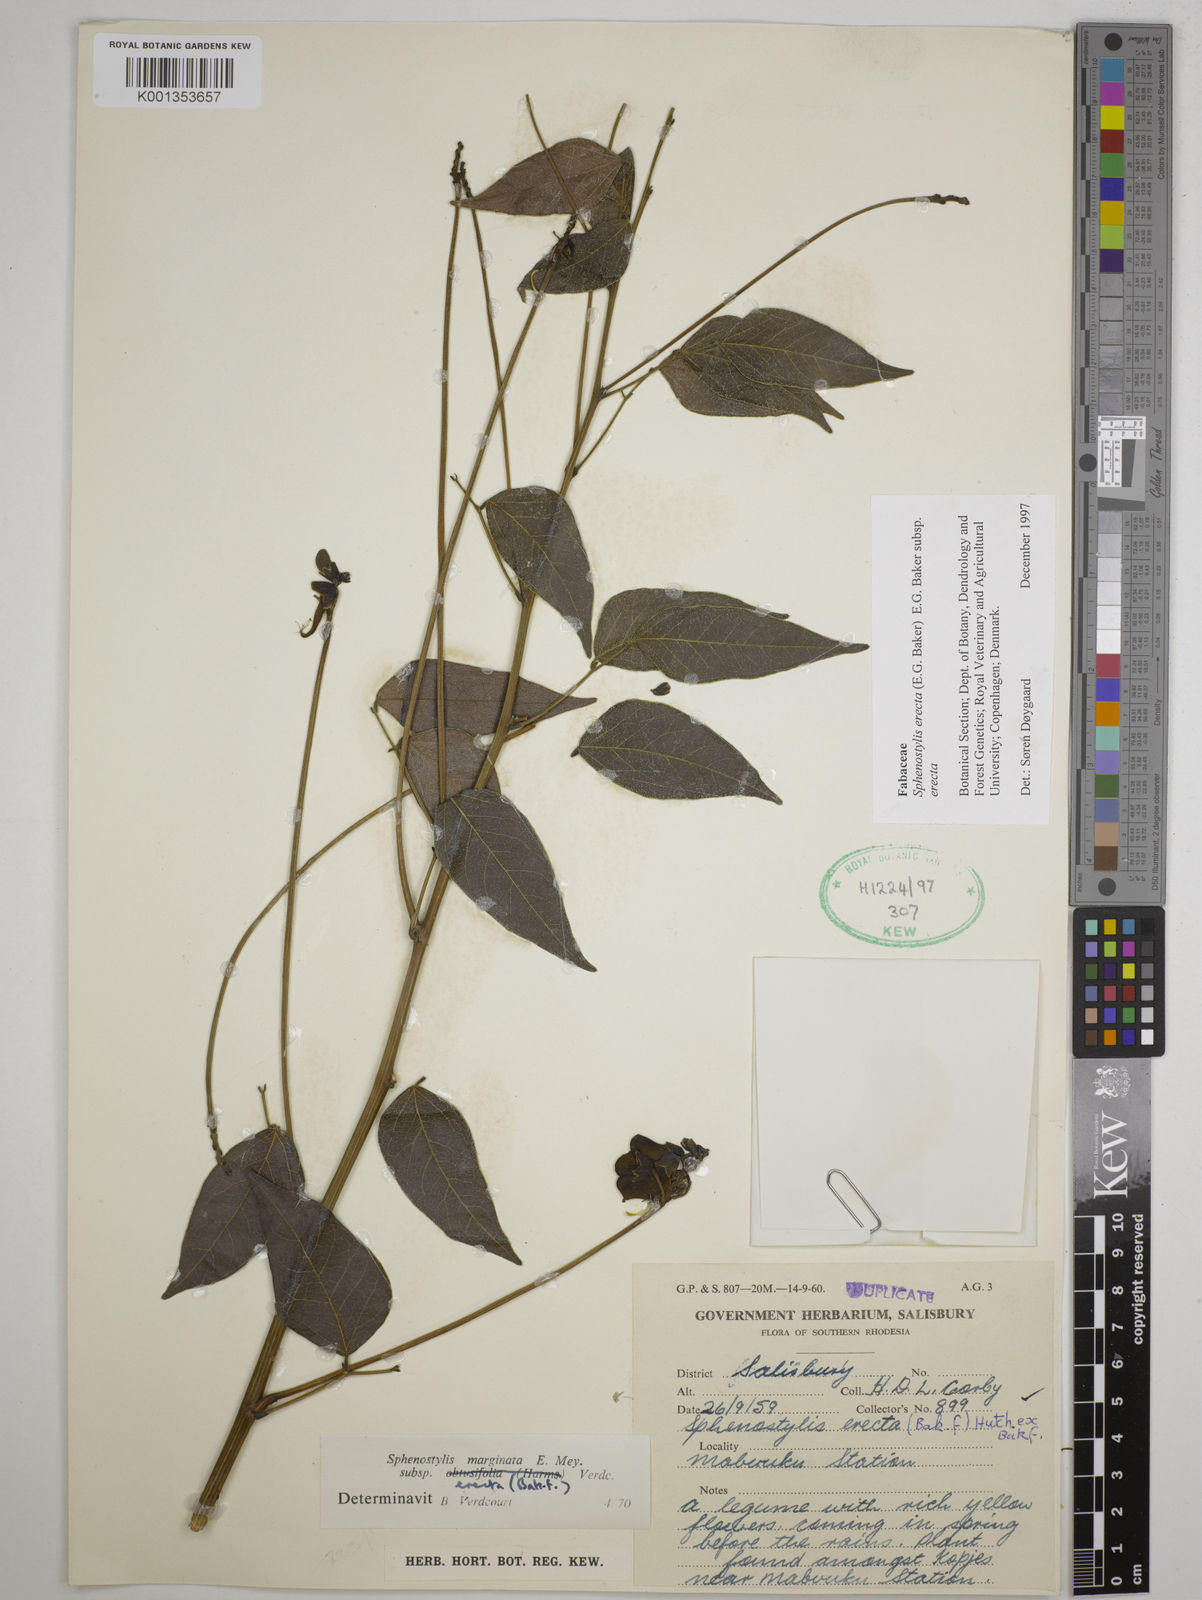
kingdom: Plantae
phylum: Tracheophyta
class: Magnoliopsida
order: Fabales
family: Fabaceae
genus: Sphenostylis
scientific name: Sphenostylis erecta
